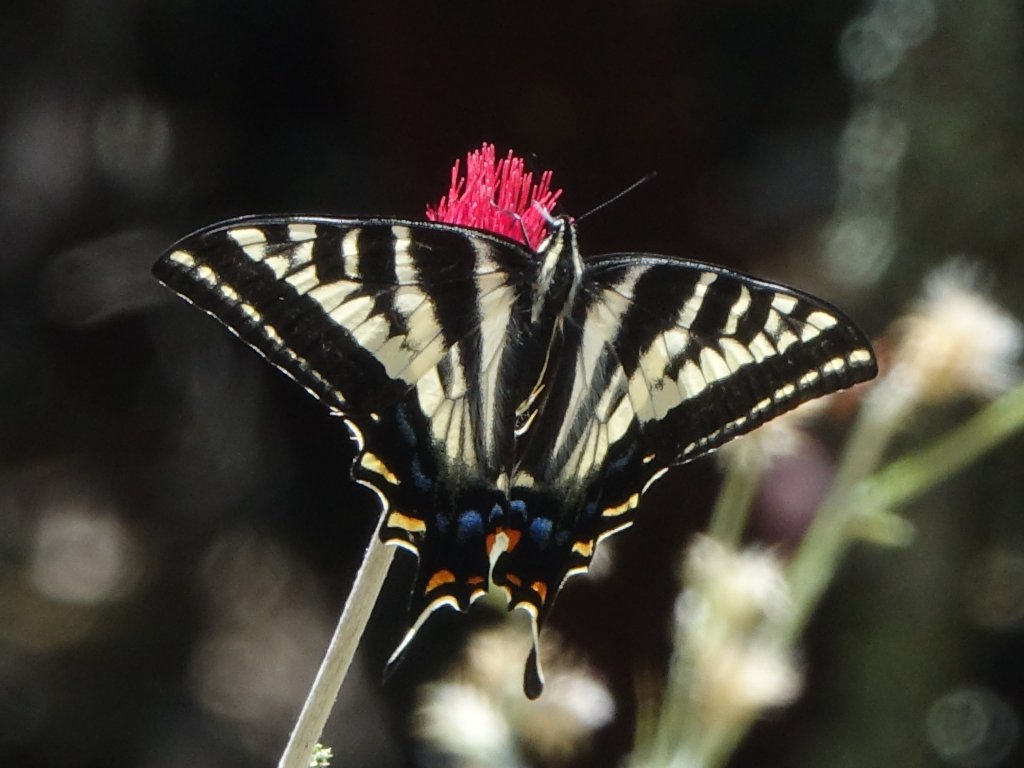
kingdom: Animalia
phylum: Arthropoda
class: Insecta
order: Lepidoptera
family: Papilionidae
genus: Pterourus
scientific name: Pterourus eurymedon
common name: Pale Swallowtail
